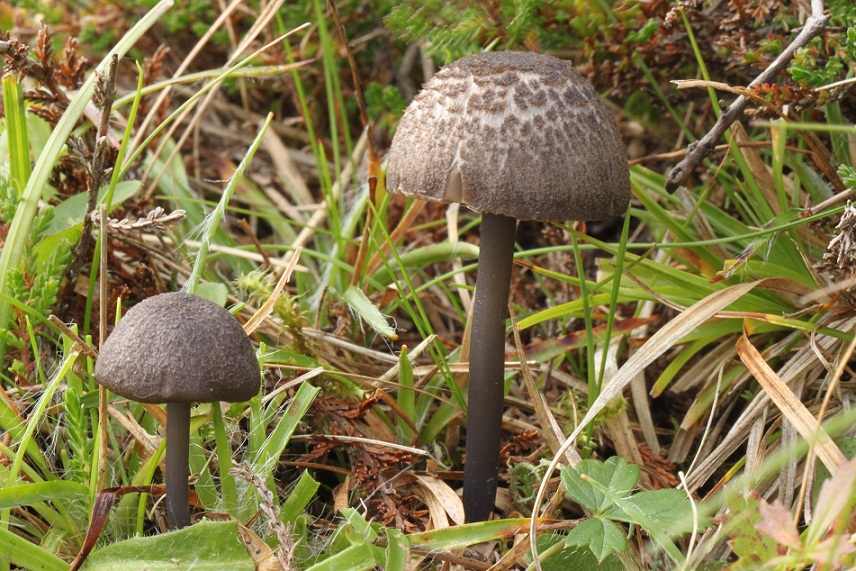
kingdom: Fungi
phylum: Basidiomycota
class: Agaricomycetes
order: Agaricales
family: Entolomataceae
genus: Entoloma
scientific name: Entoloma
